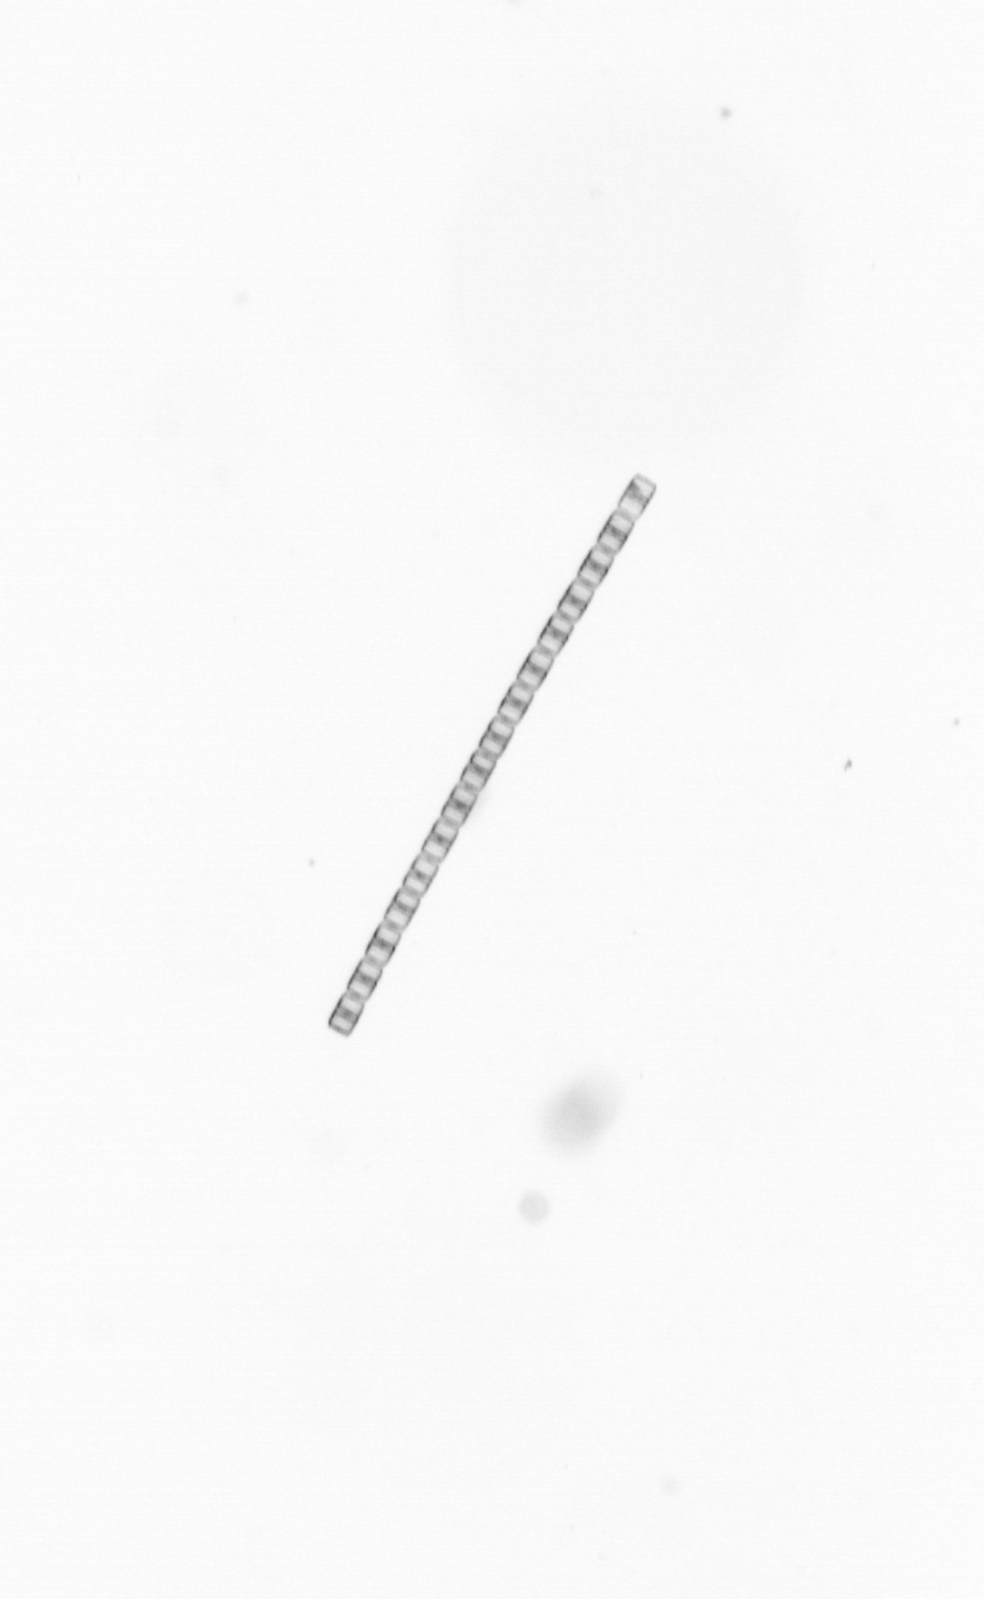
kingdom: Chromista
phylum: Ochrophyta
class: Bacillariophyceae
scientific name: Bacillariophyceae
